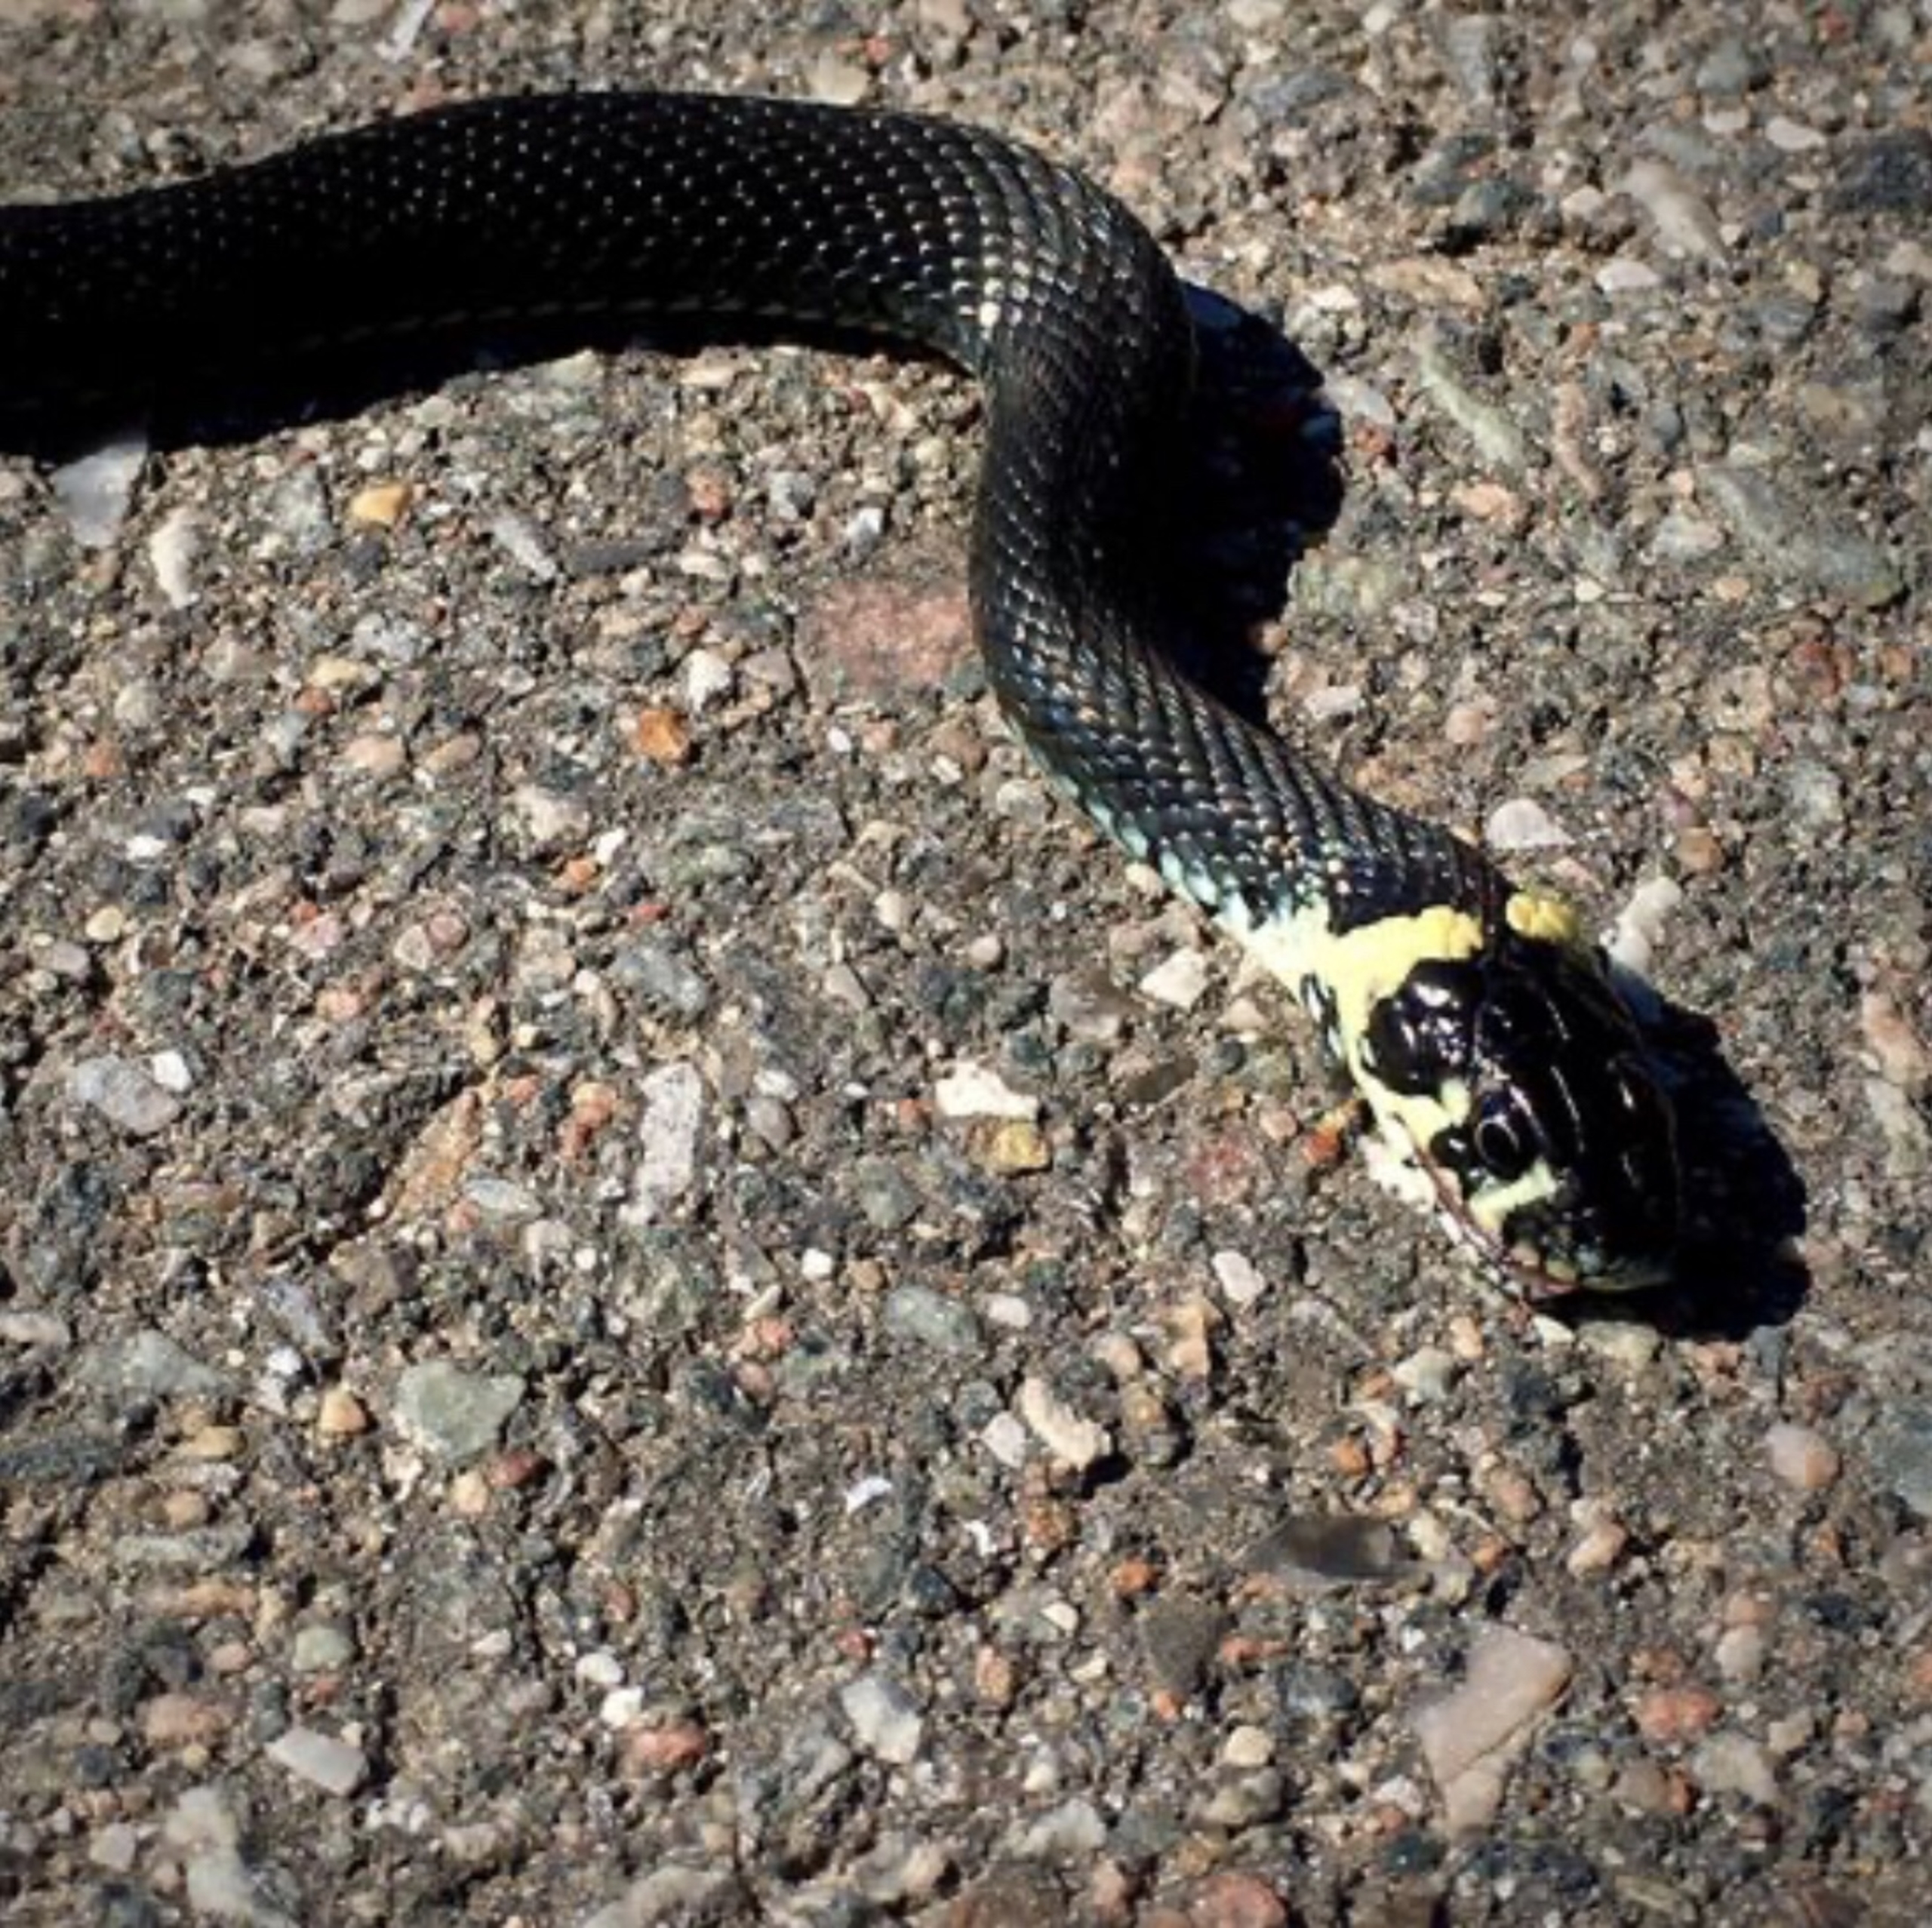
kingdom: Animalia
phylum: Chordata
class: Squamata
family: Colubridae
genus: Natrix
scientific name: Natrix natrix
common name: Snog
